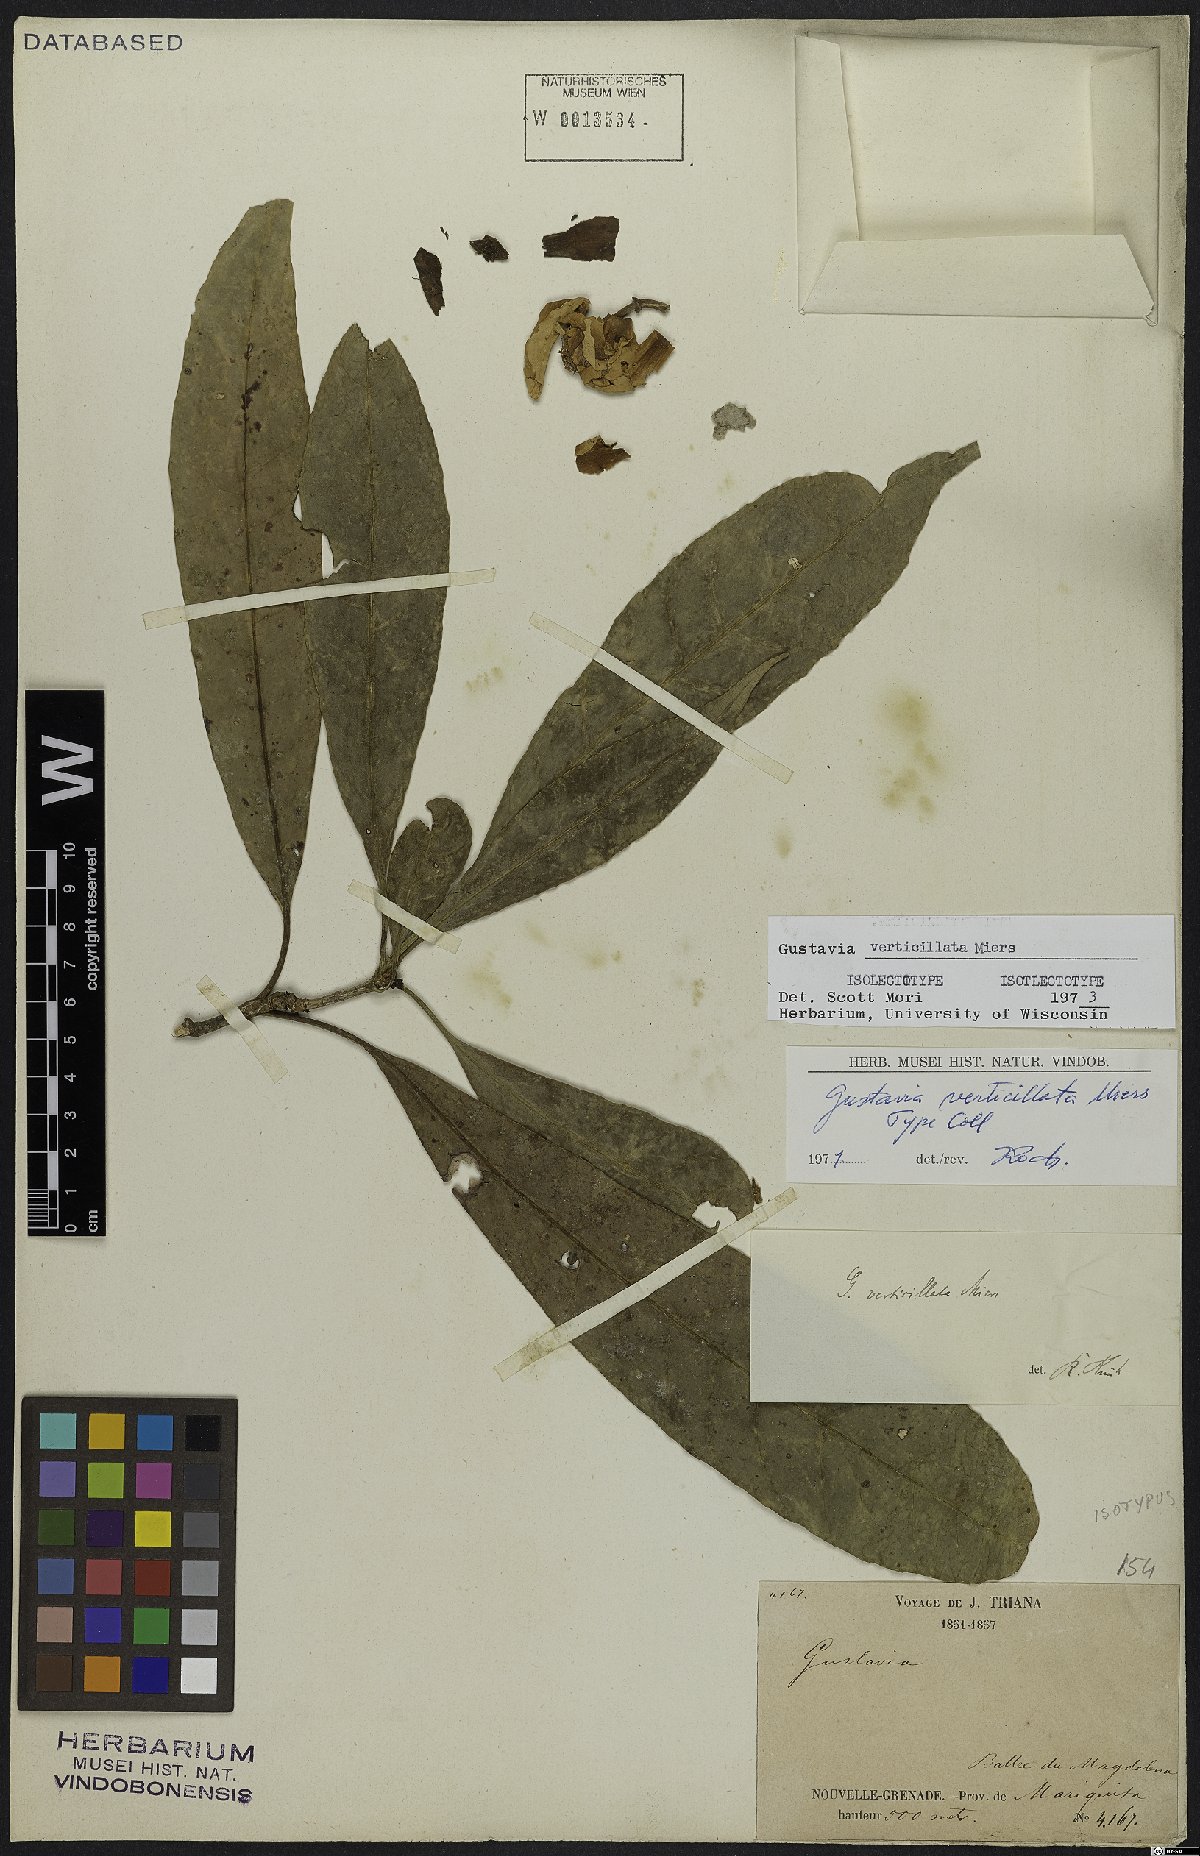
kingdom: Plantae
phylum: Tracheophyta
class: Magnoliopsida
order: Ericales
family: Lecythidaceae
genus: Gustavia
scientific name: Gustavia verticillata
